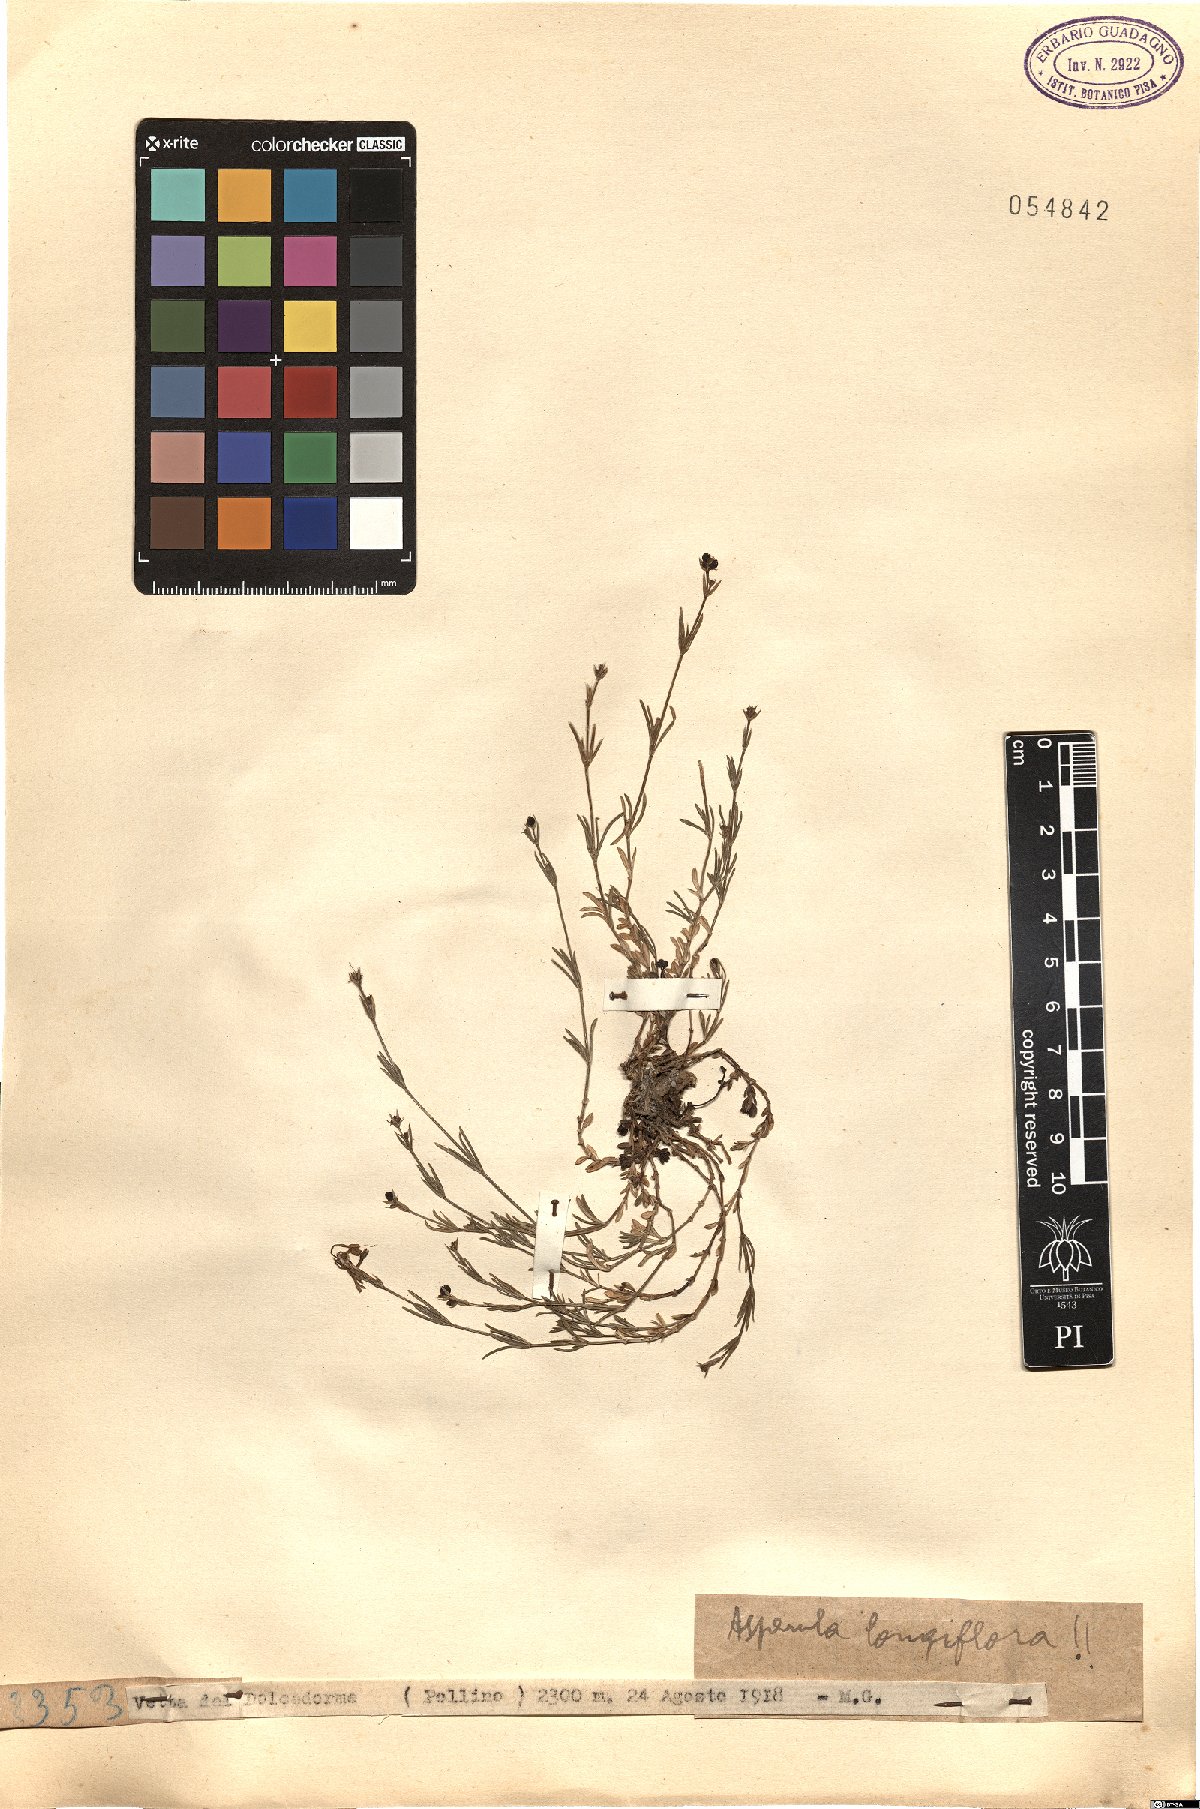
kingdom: Plantae
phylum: Tracheophyta
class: Magnoliopsida
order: Gentianales
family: Rubiaceae
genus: Cynanchica
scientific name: Cynanchica aristata
